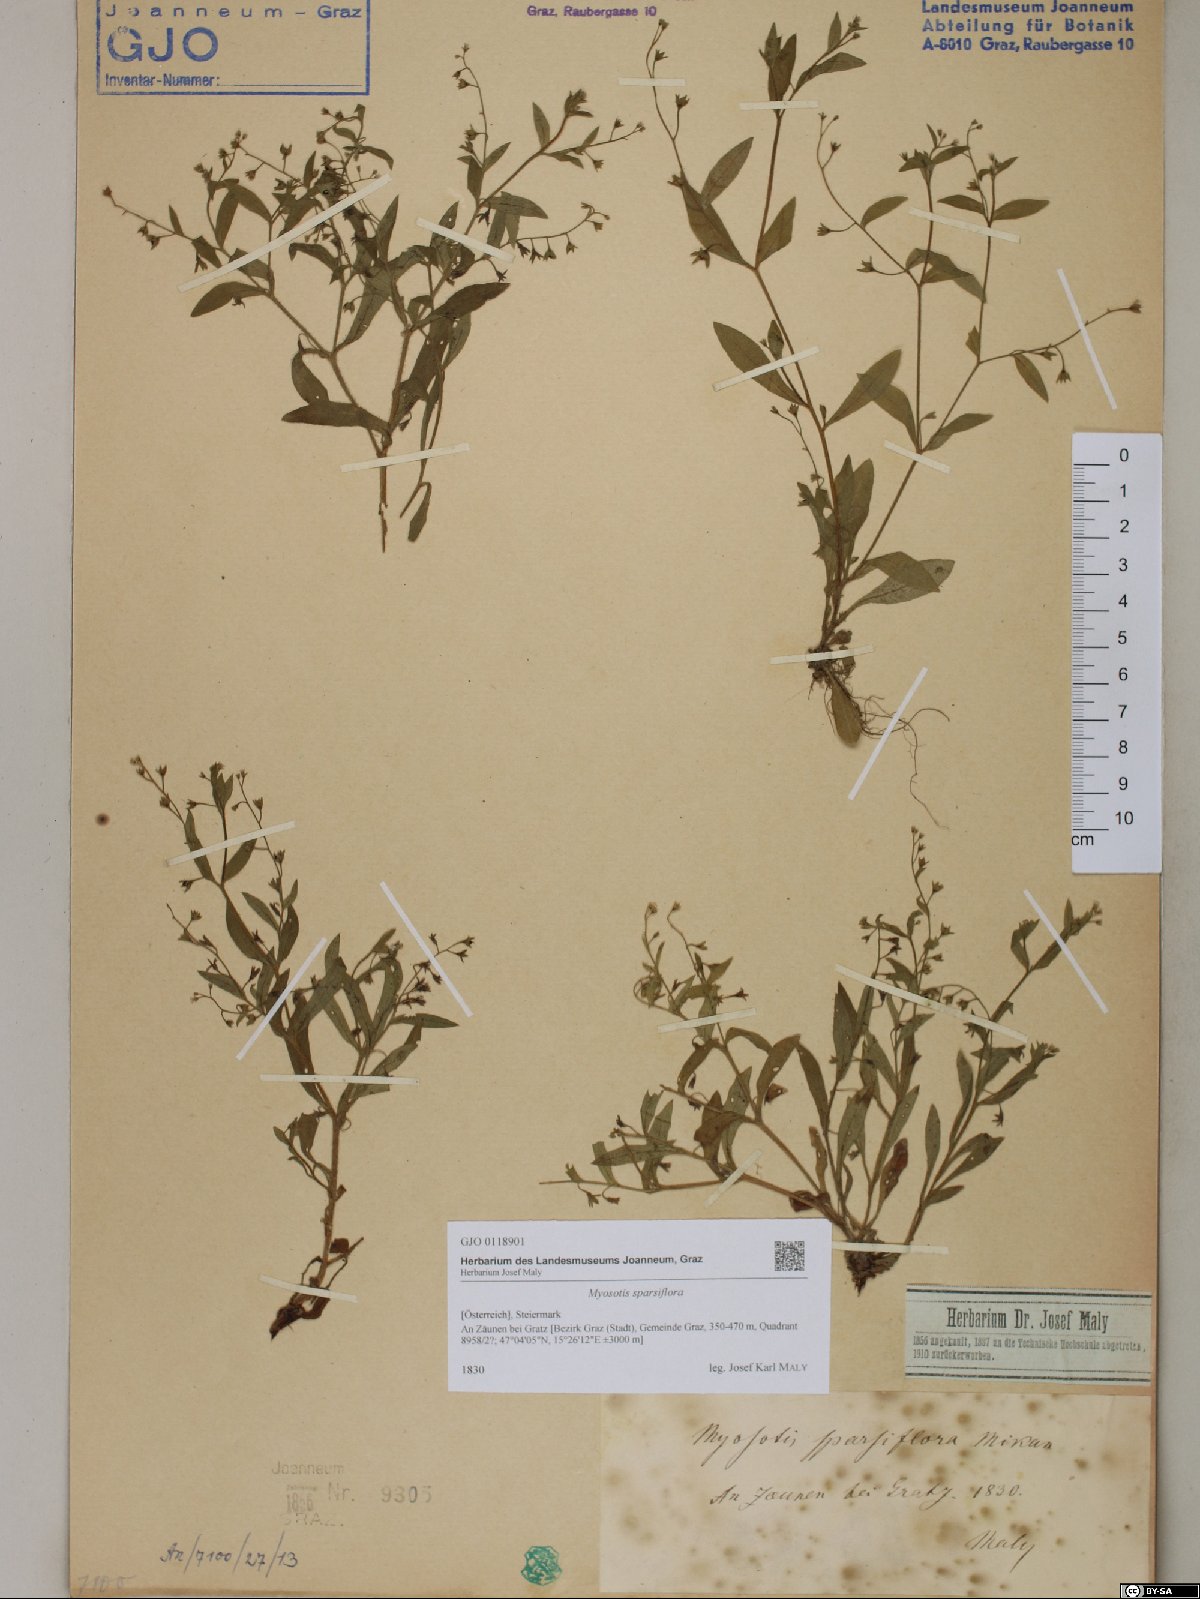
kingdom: Plantae
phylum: Tracheophyta
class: Magnoliopsida
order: Boraginales
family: Boraginaceae
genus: Myosotis
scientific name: Myosotis sparsiflora
